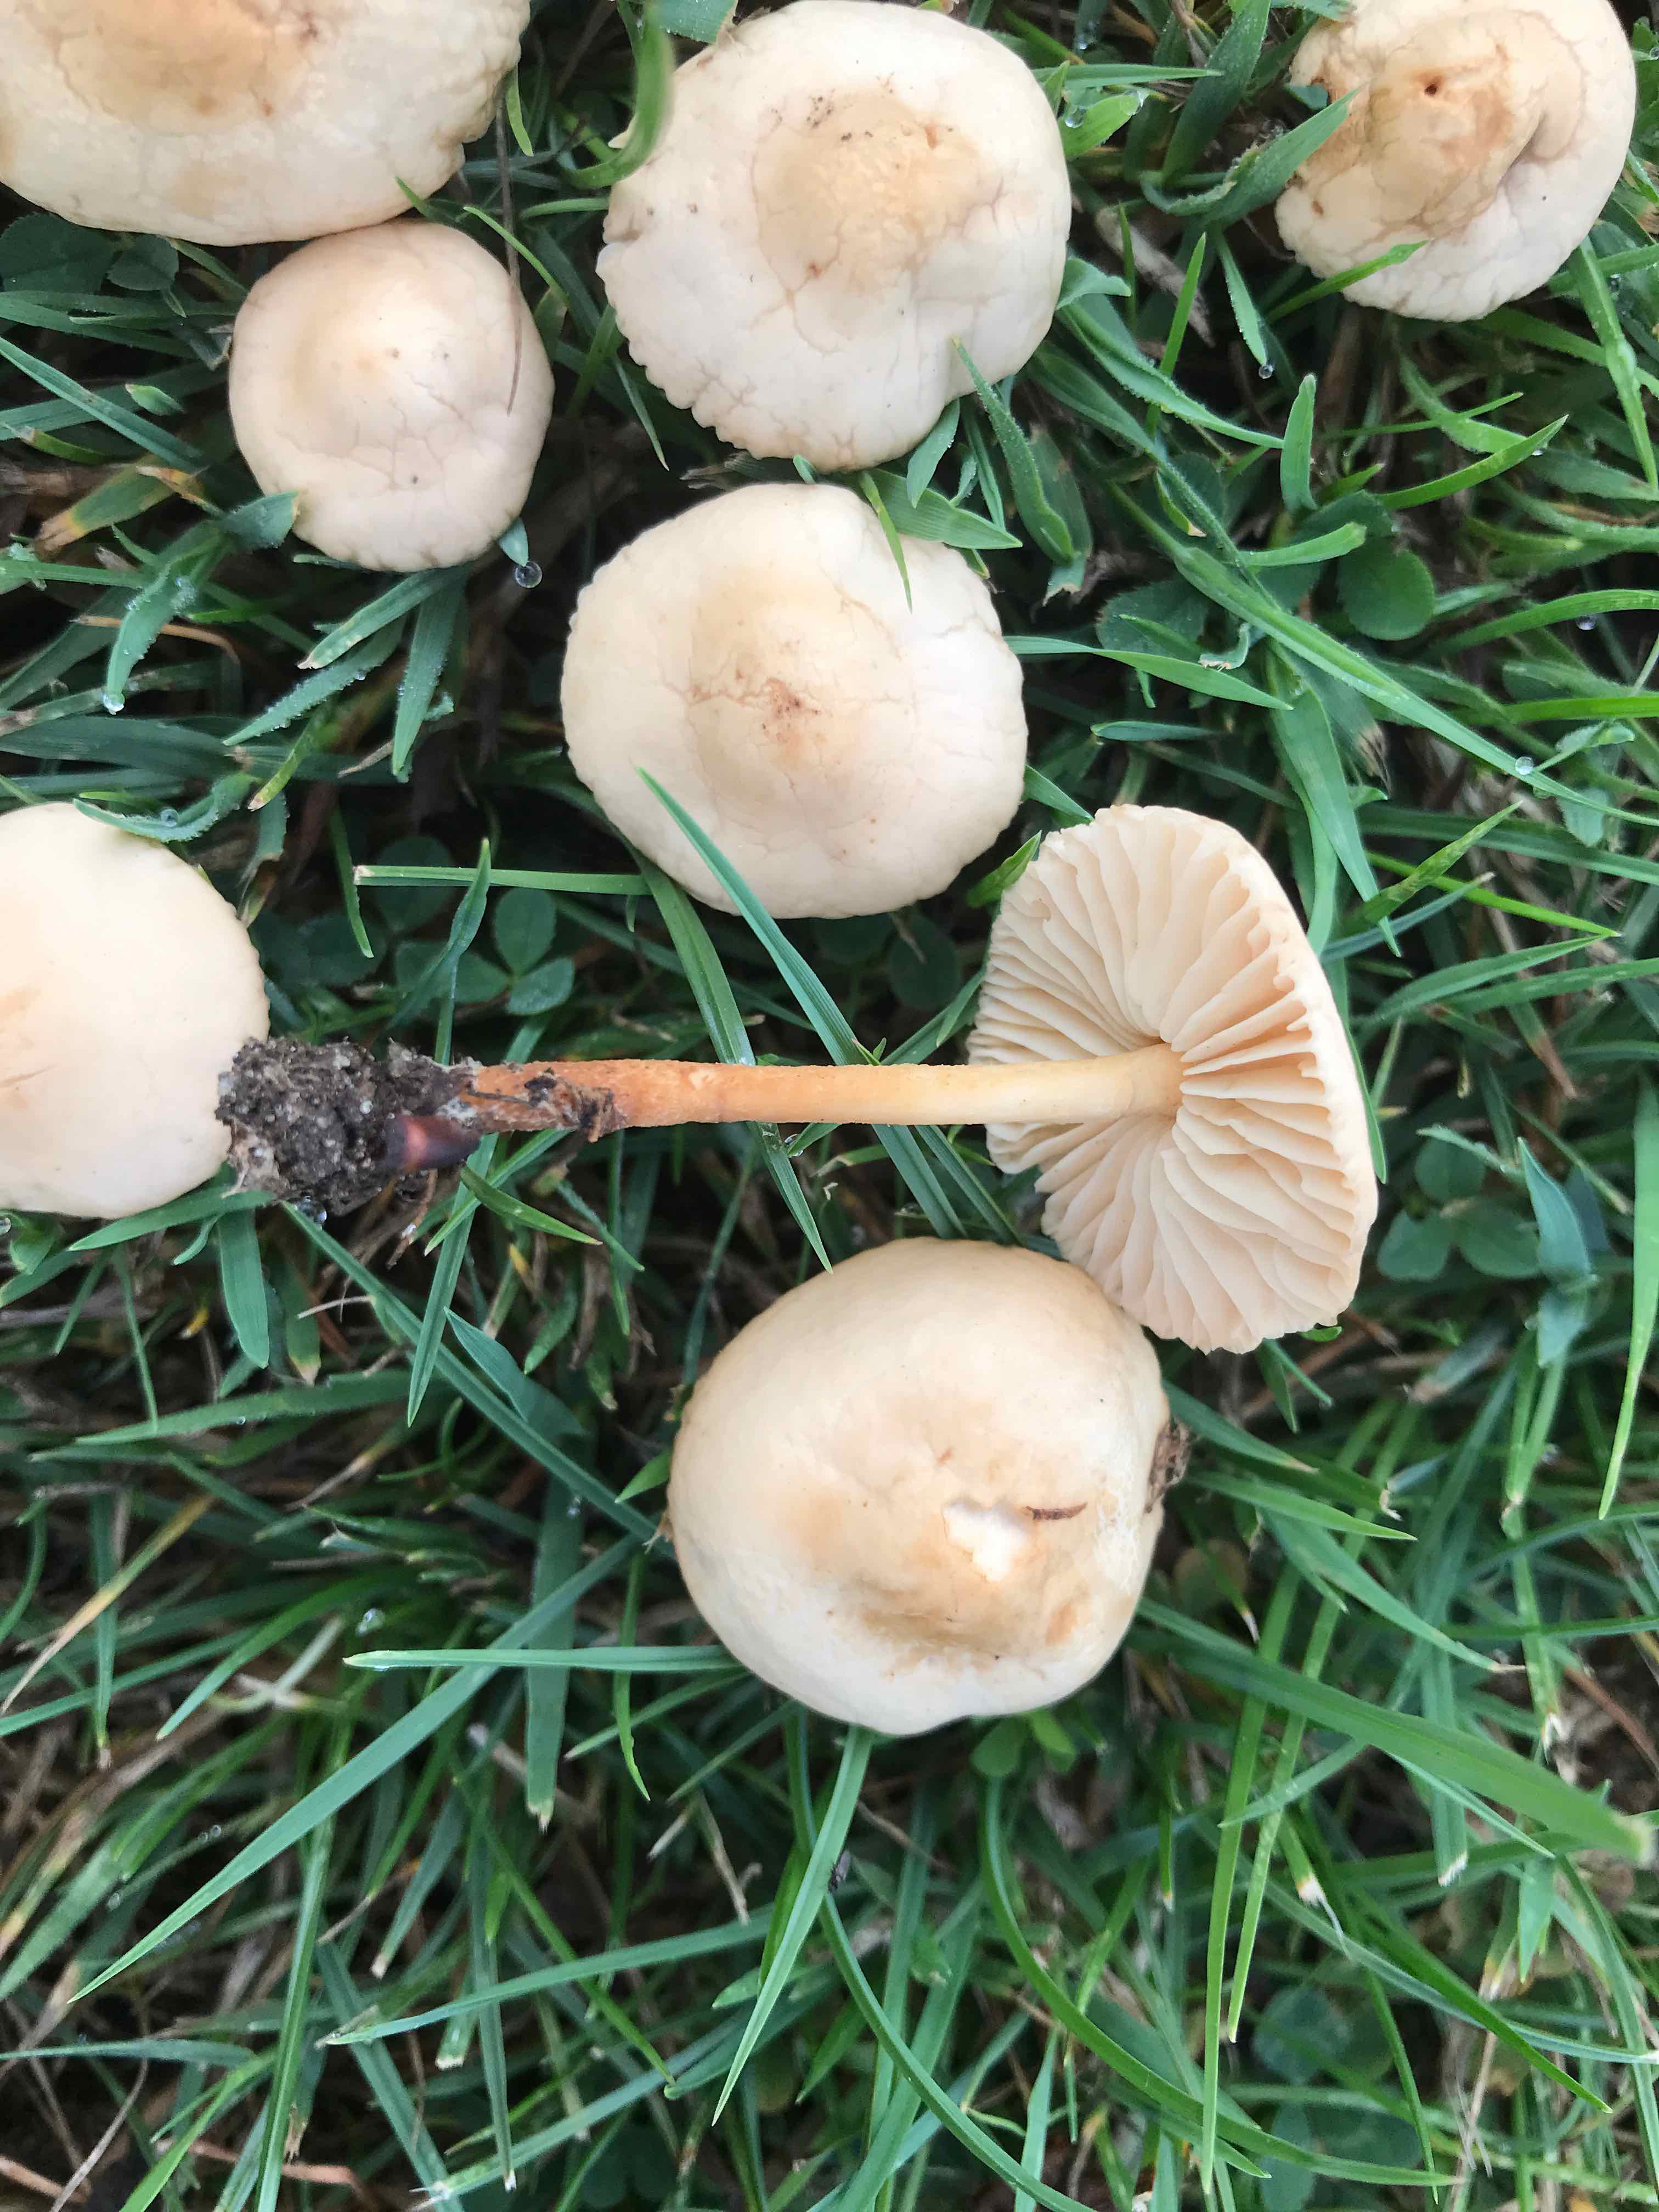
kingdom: Fungi
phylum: Basidiomycota
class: Agaricomycetes
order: Agaricales
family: Marasmiaceae
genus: Marasmius
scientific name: Marasmius oreades
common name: elledans-bruskhat
